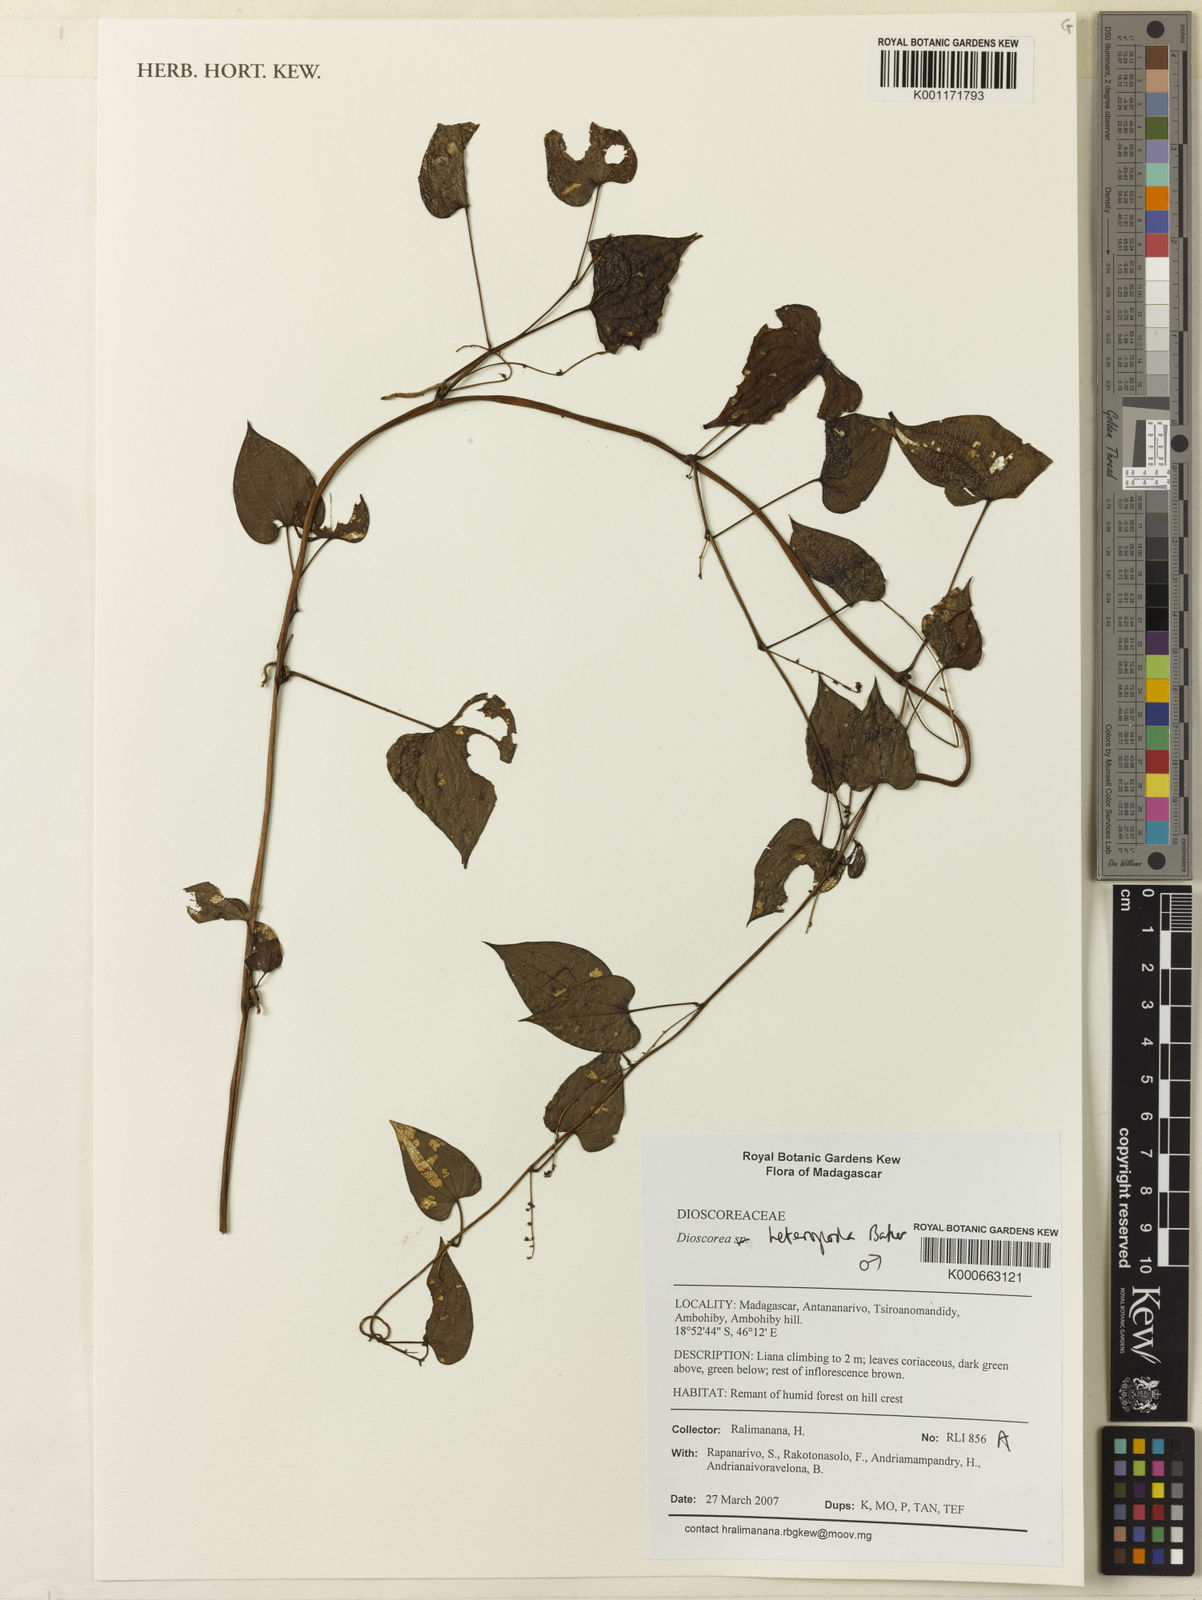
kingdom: Plantae
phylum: Tracheophyta
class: Liliopsida
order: Dioscoreales
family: Dioscoreaceae
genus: Dioscorea
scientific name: Dioscorea heteropoda
